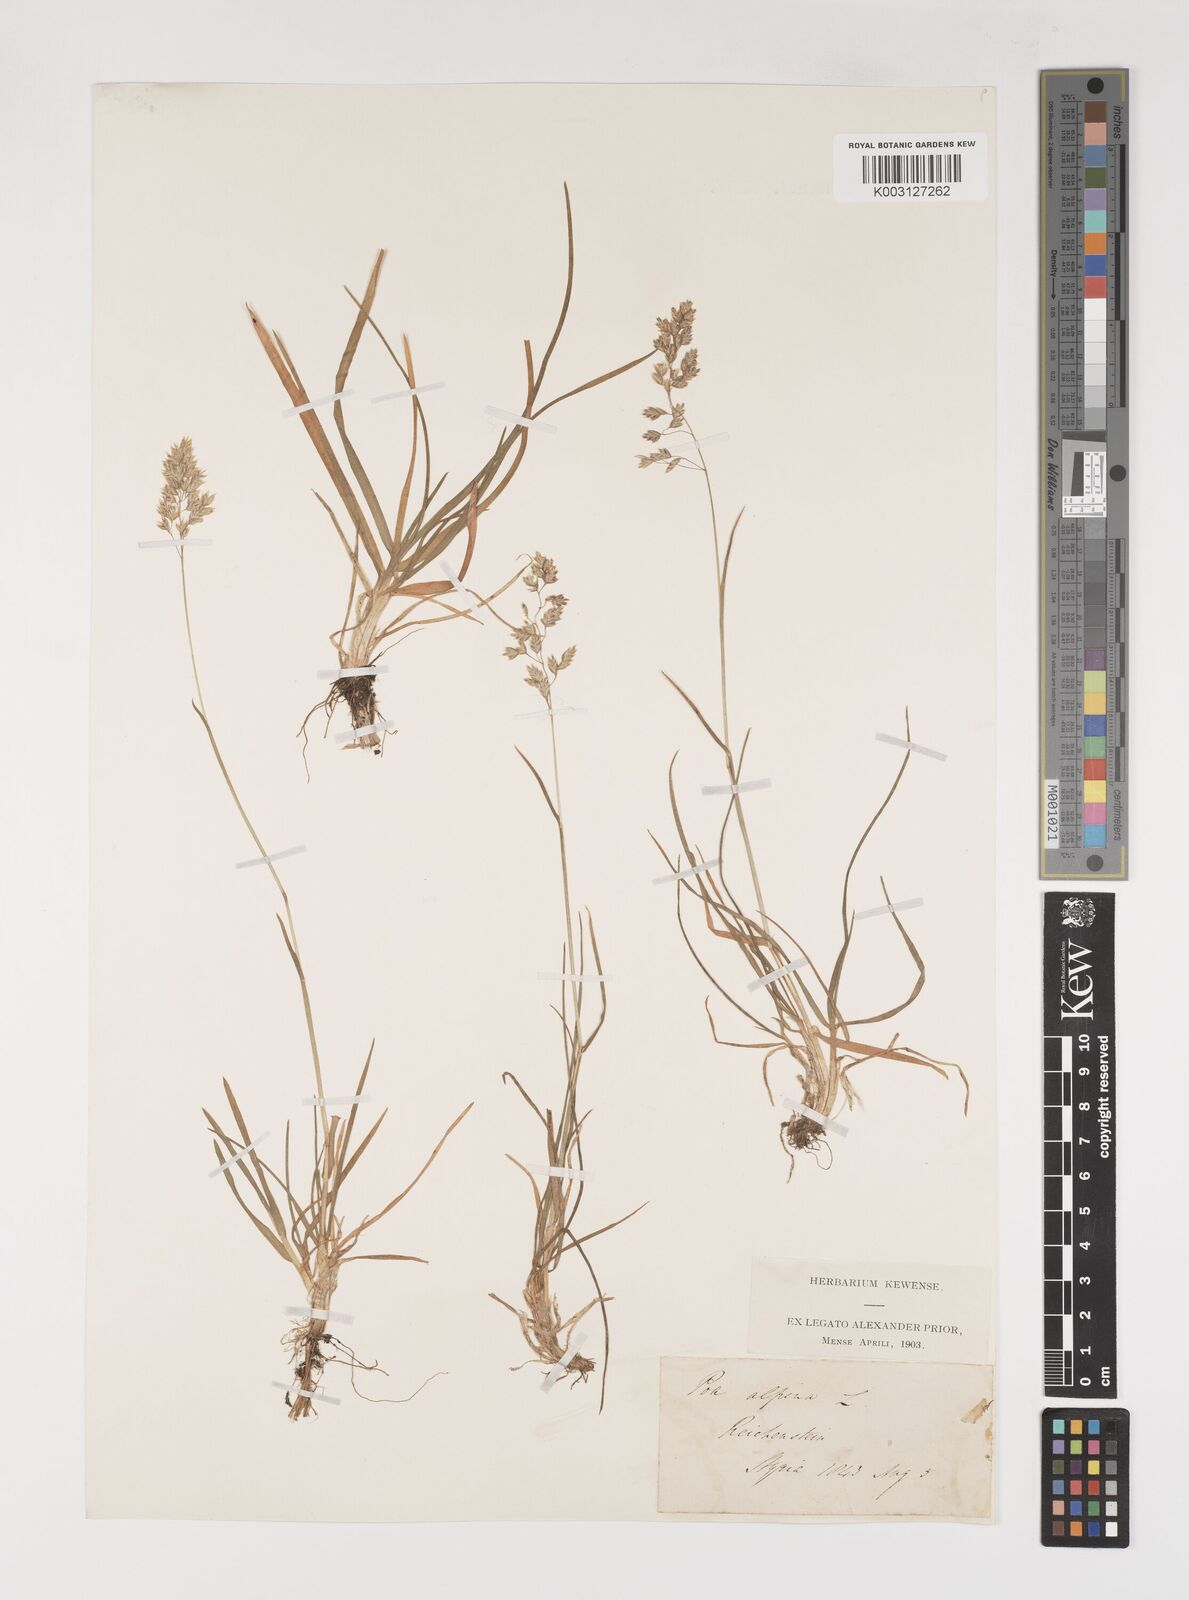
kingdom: Plantae
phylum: Tracheophyta
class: Liliopsida
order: Poales
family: Poaceae
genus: Poa
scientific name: Poa alpina
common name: Alpine bluegrass
